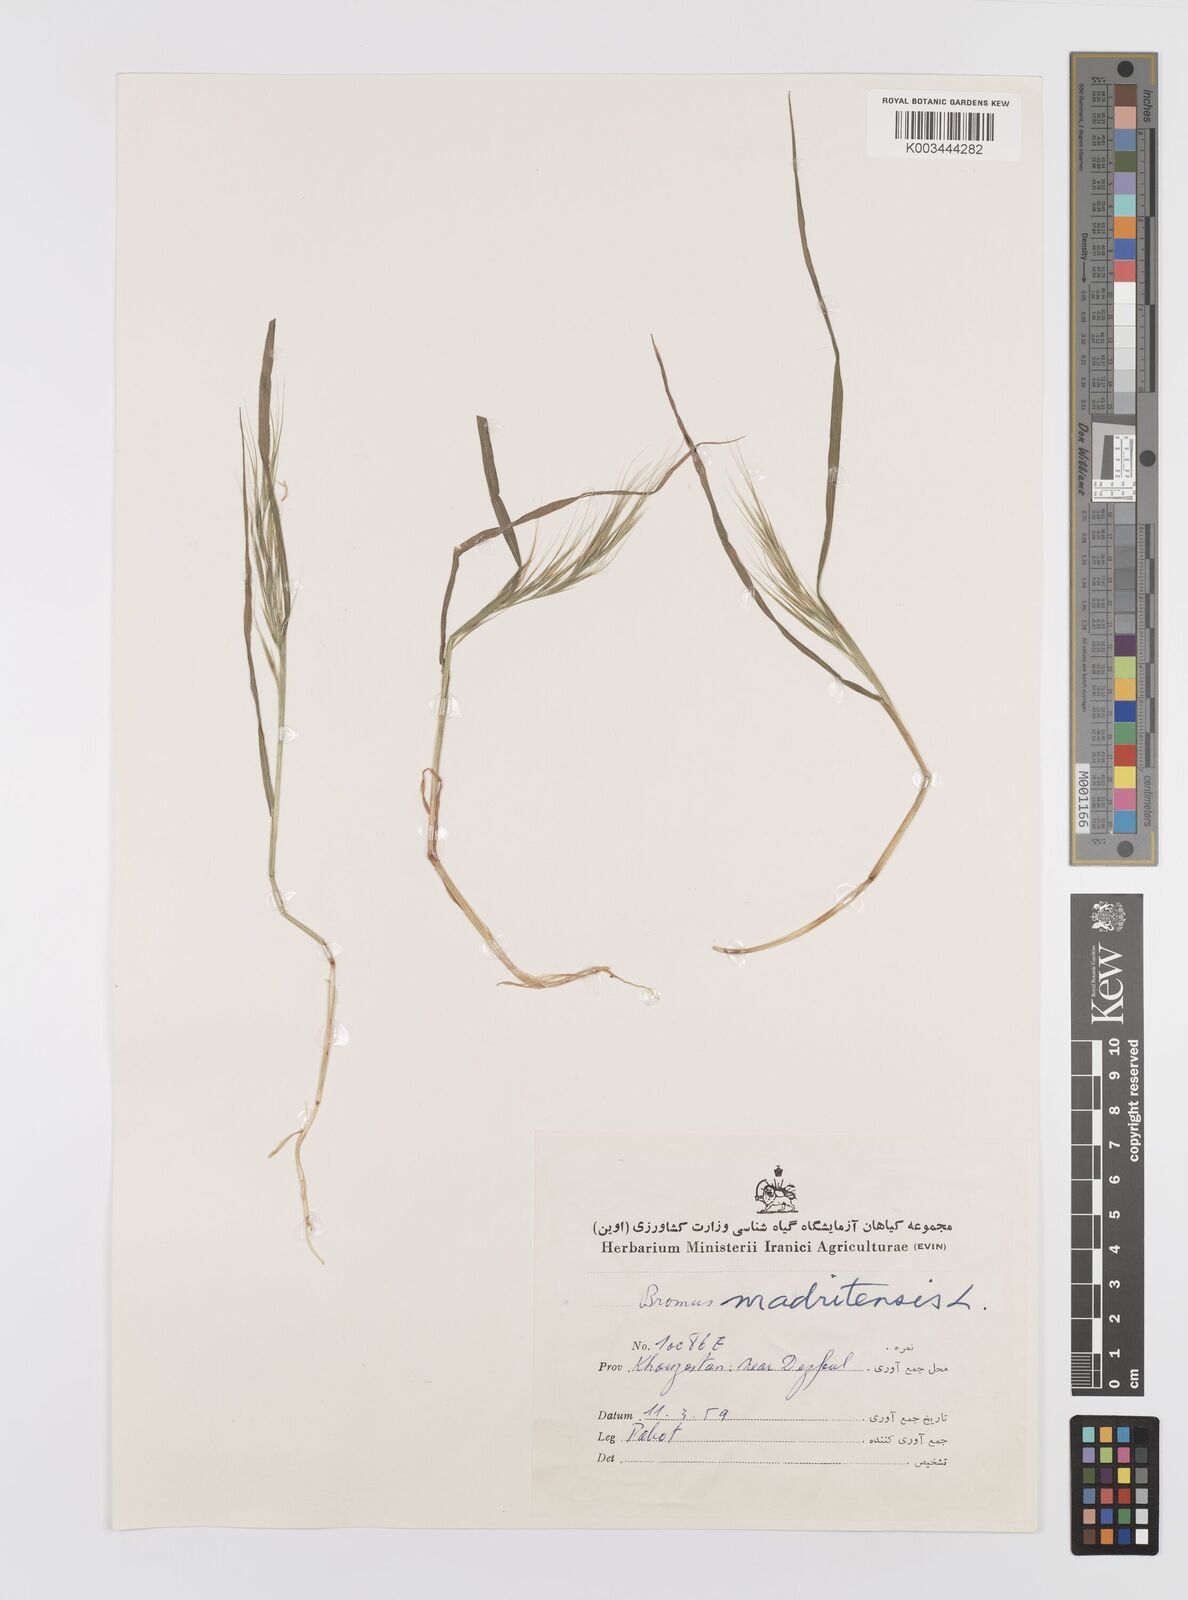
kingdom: Plantae
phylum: Tracheophyta
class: Liliopsida
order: Poales
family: Poaceae
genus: Bromus
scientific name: Bromus madritensis
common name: Compact brome
